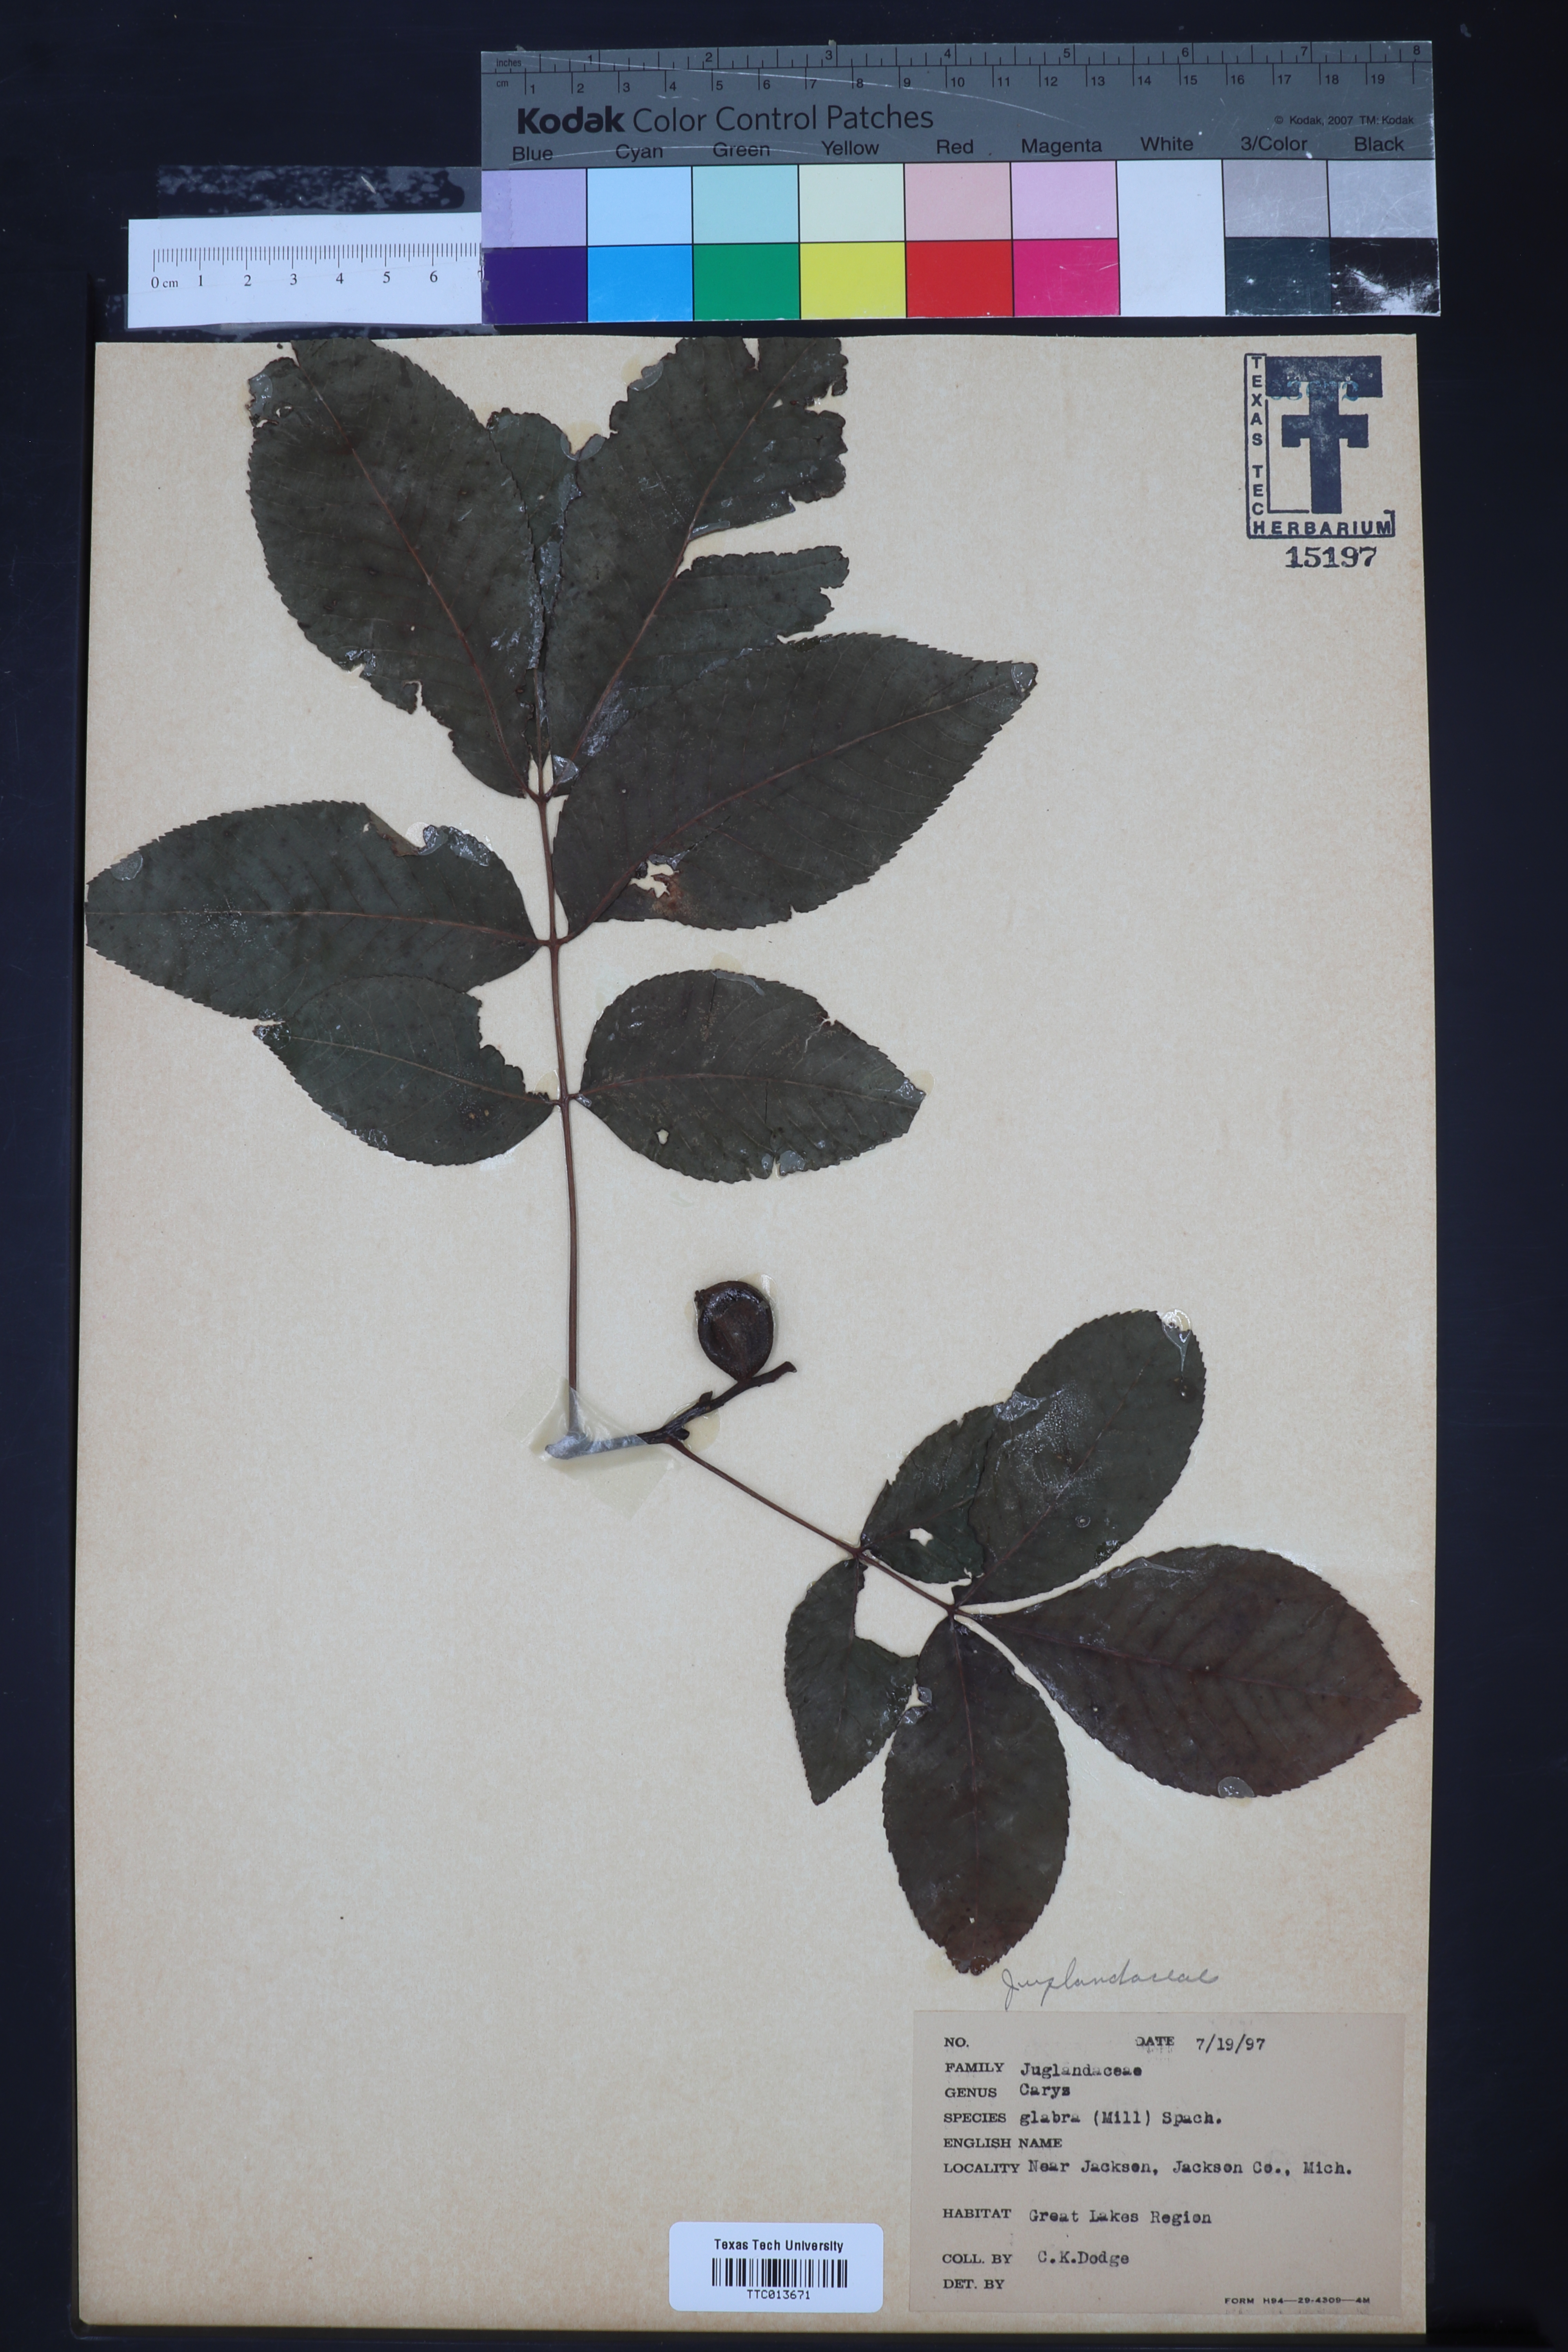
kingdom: Plantae
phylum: Tracheophyta
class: Magnoliopsida
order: Fagales
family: Juglandaceae
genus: Carya
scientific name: Carya cordiformis
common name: Bitternut hickory
